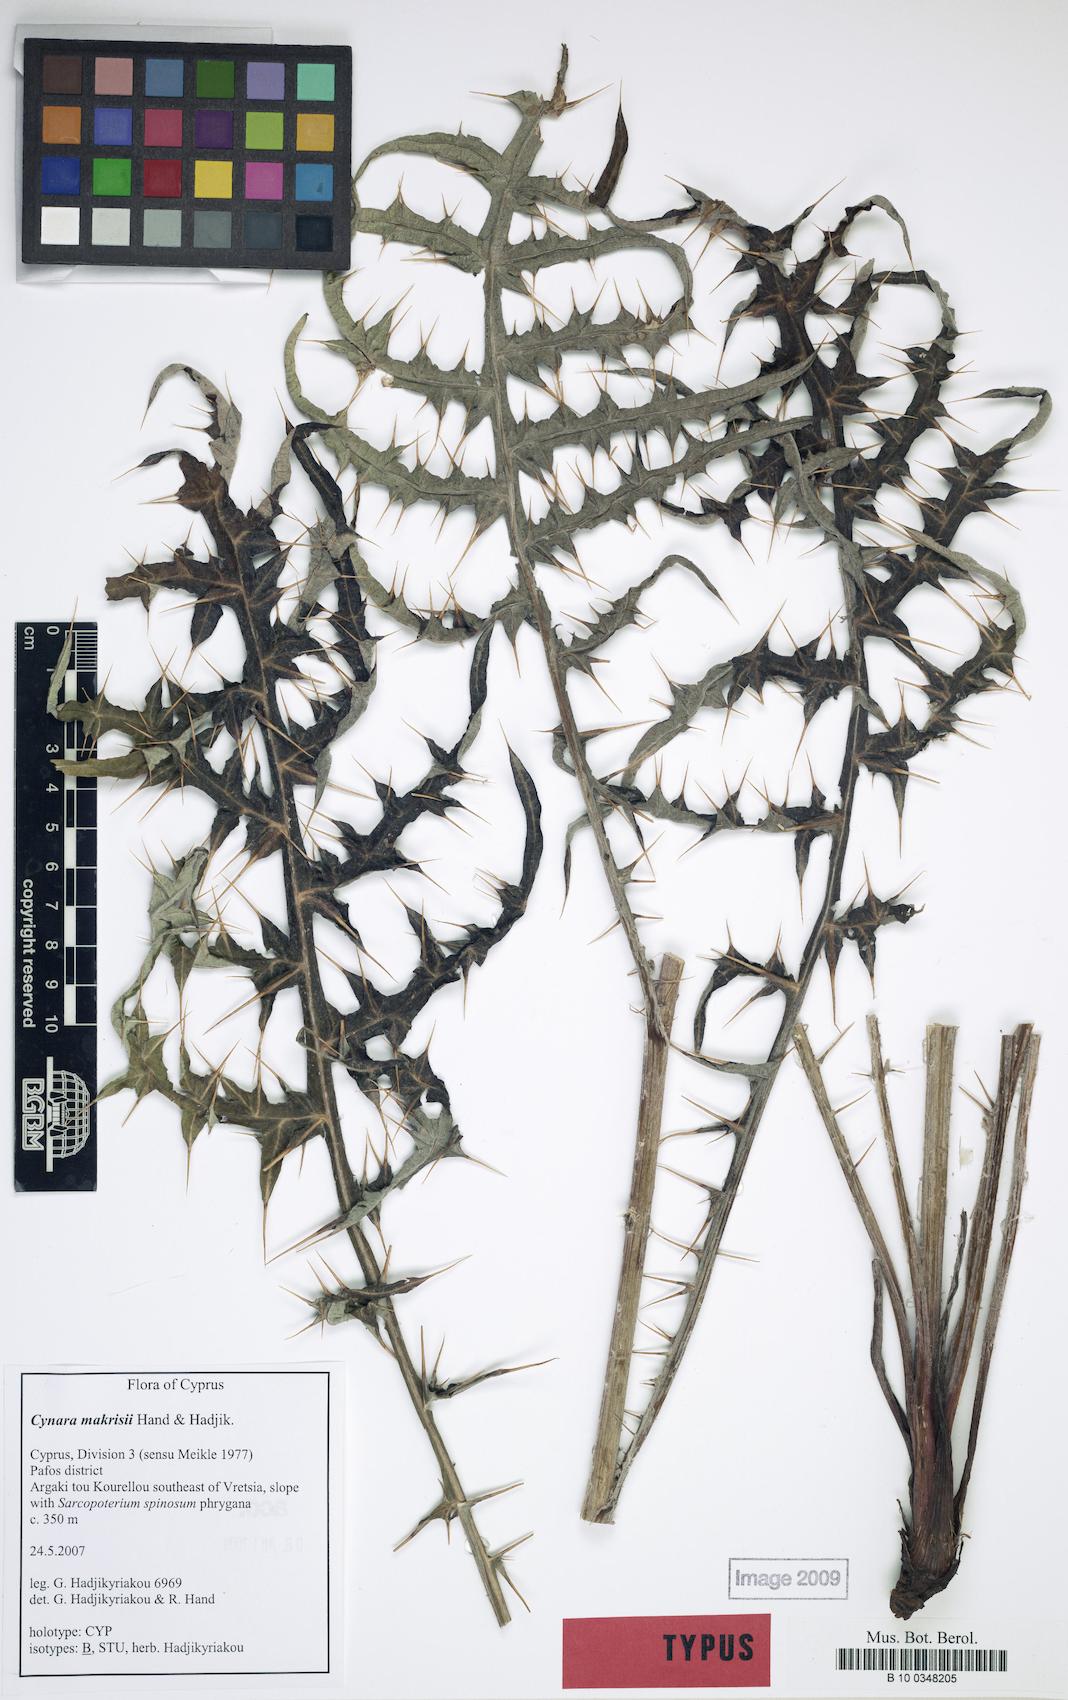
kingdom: Plantae
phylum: Tracheophyta
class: Magnoliopsida
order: Asterales
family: Asteraceae
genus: Cynara
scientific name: Cynara makrisii
